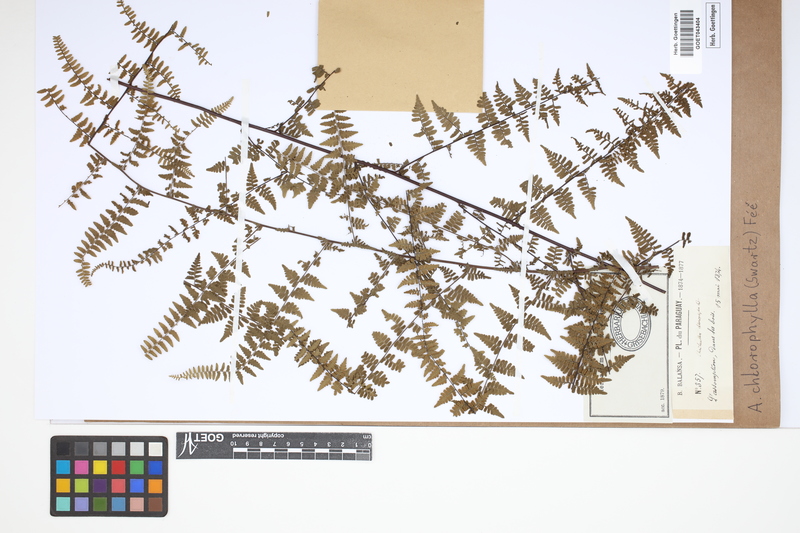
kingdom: Plantae
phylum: Tracheophyta
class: Polypodiopsida
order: Polypodiales
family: Pteridaceae
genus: Adiantopsis
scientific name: Adiantopsis chlorophylla
